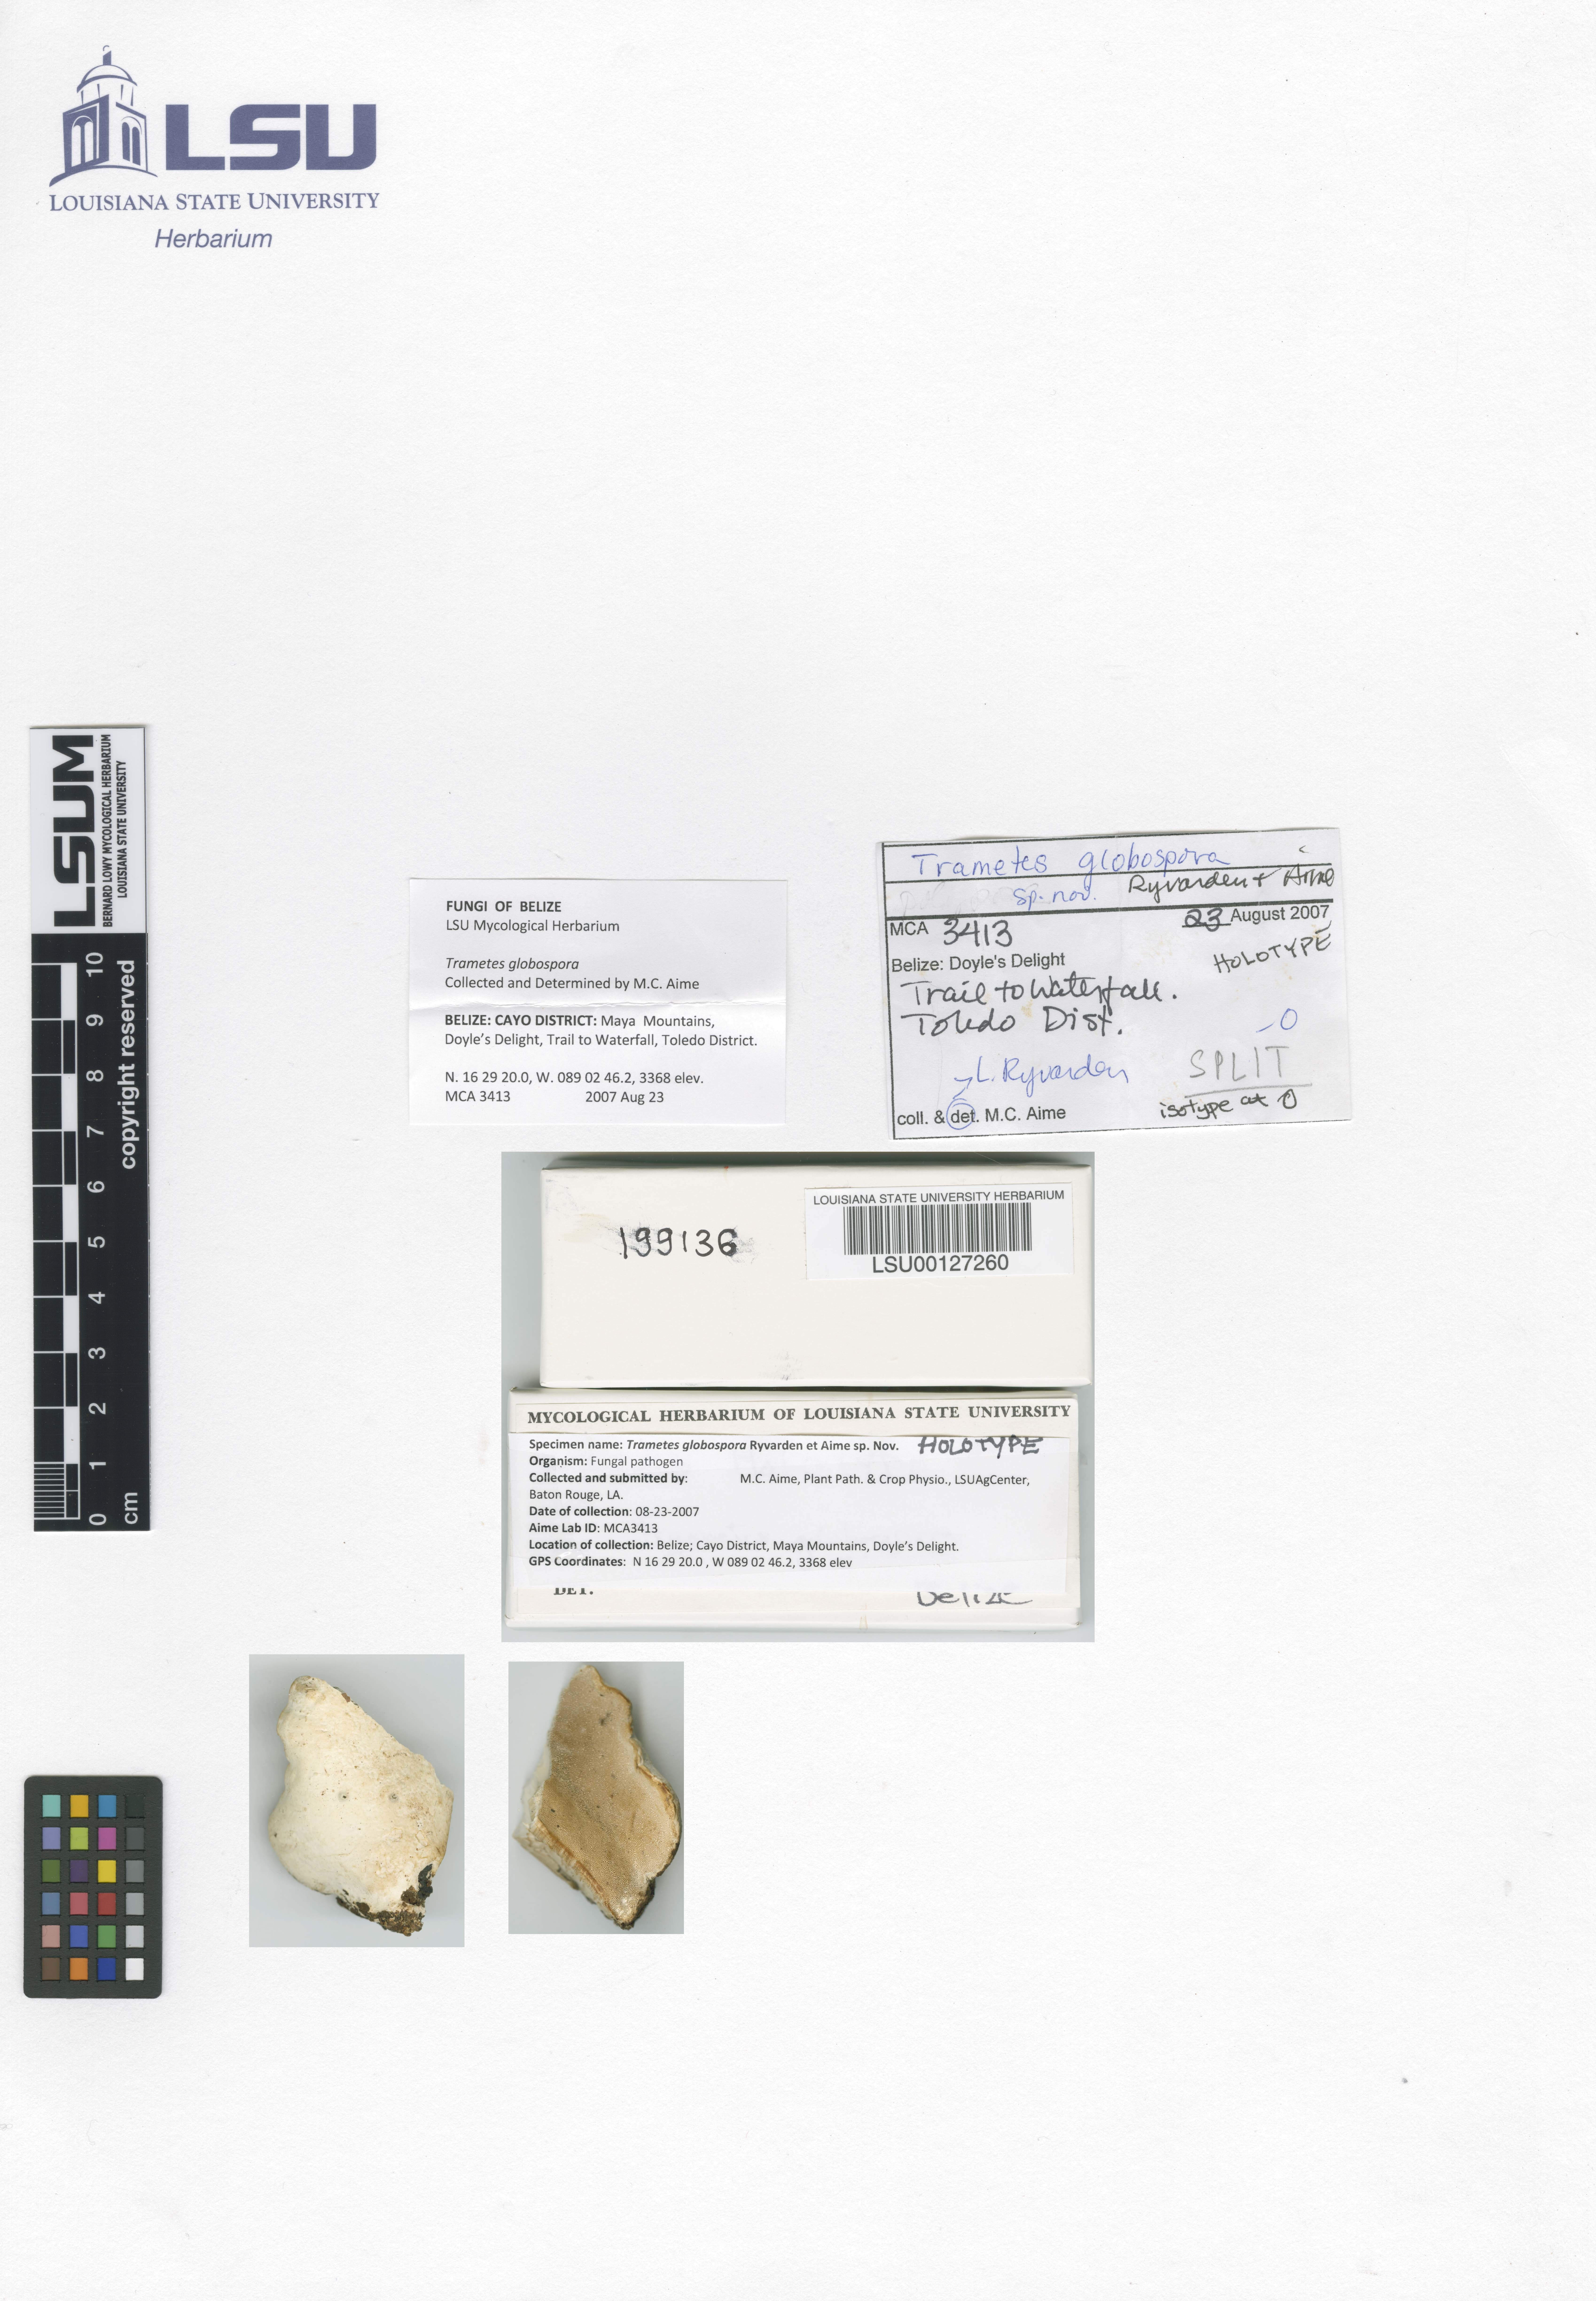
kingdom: Fungi
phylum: Basidiomycota
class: Agaricomycetes
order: Polyporales
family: Fomitopsidaceae
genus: Niveoporofomes
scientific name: Niveoporofomes globosporus
